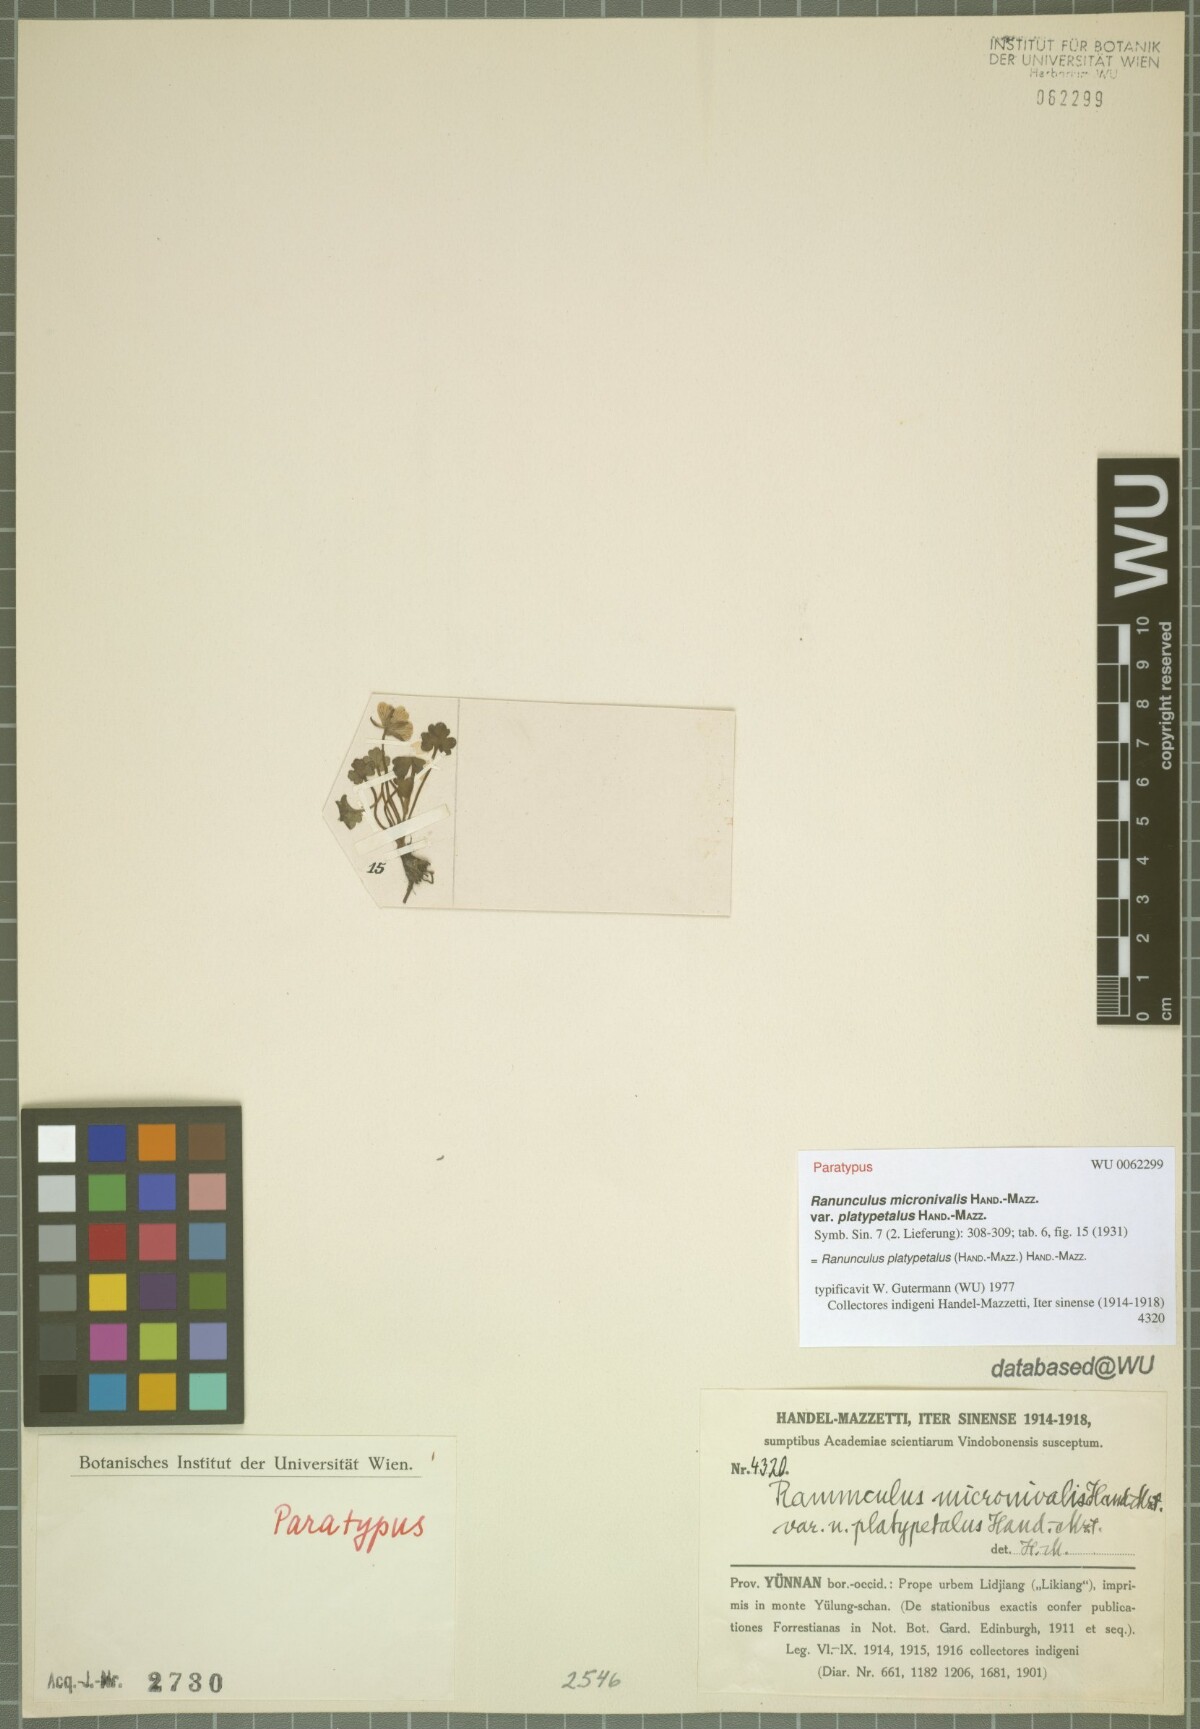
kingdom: Plantae
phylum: Tracheophyta
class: Magnoliopsida
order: Ranunculales
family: Ranunculaceae
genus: Ranunculus
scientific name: Ranunculus platypetalus
